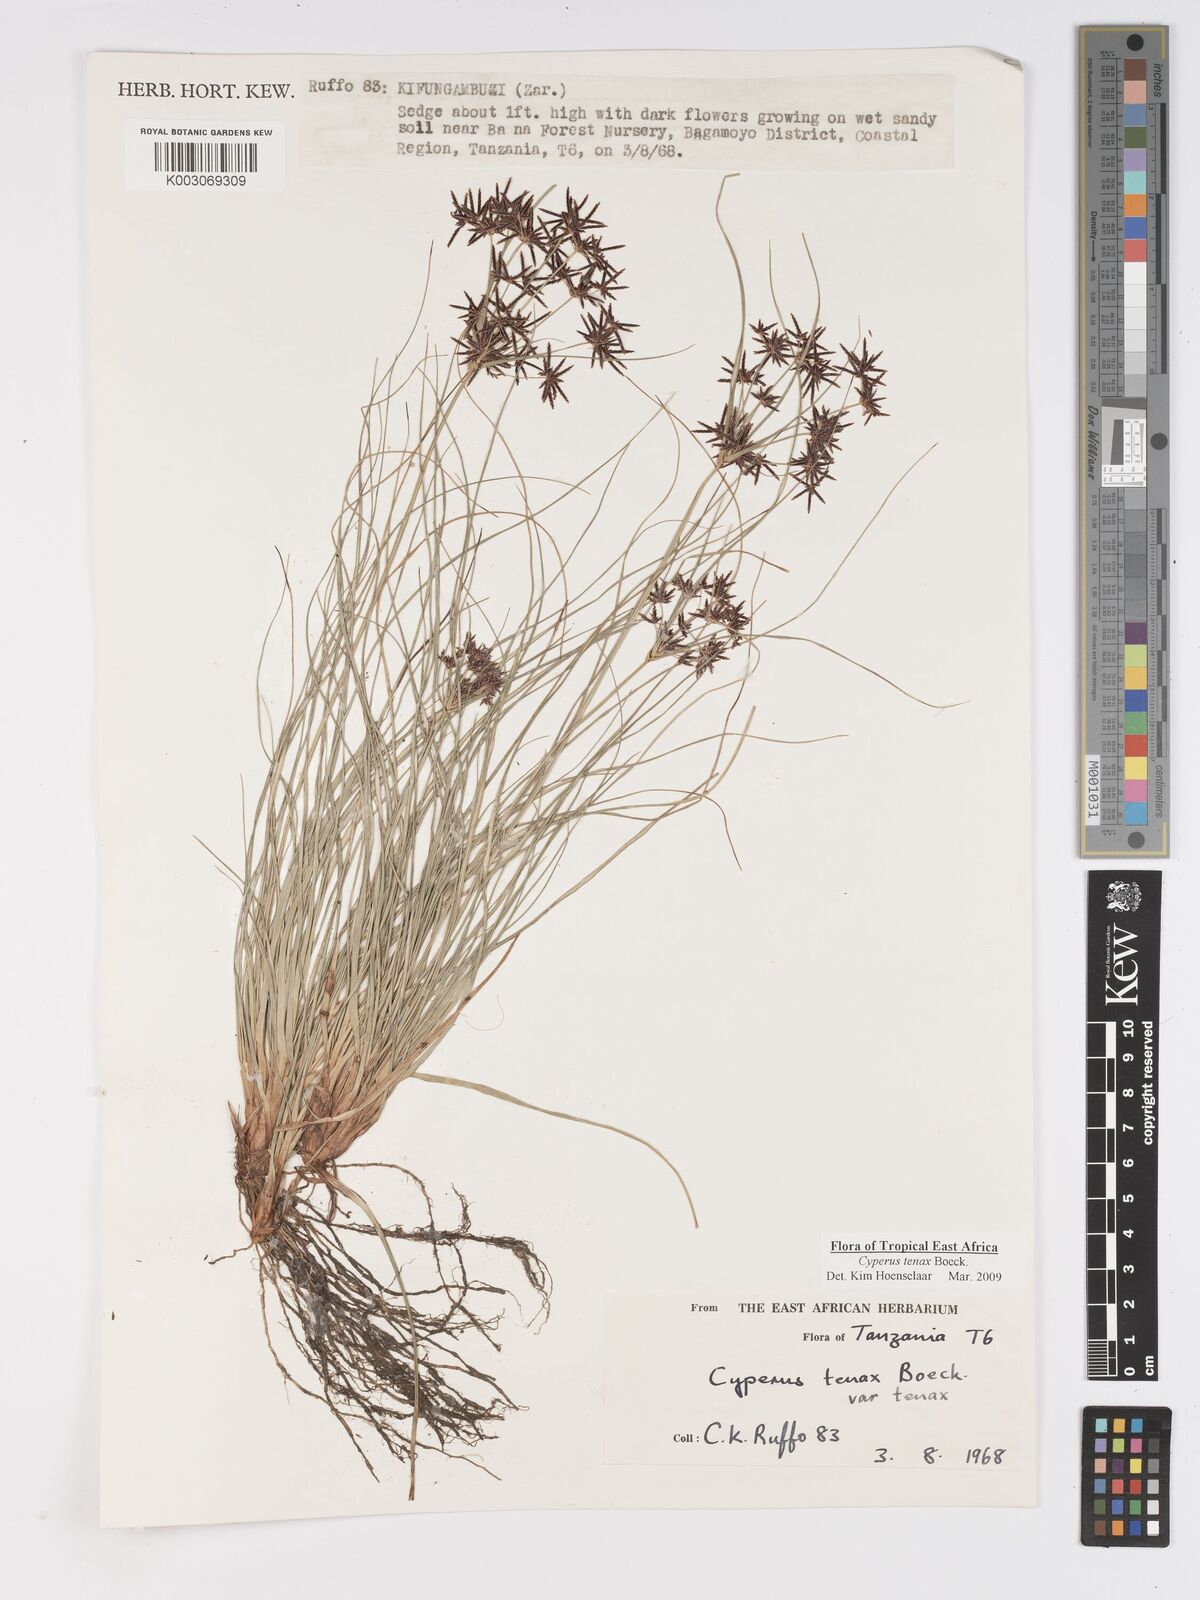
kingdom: Plantae
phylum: Tracheophyta
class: Liliopsida
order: Poales
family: Cyperaceae
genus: Cyperus
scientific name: Cyperus tenax
